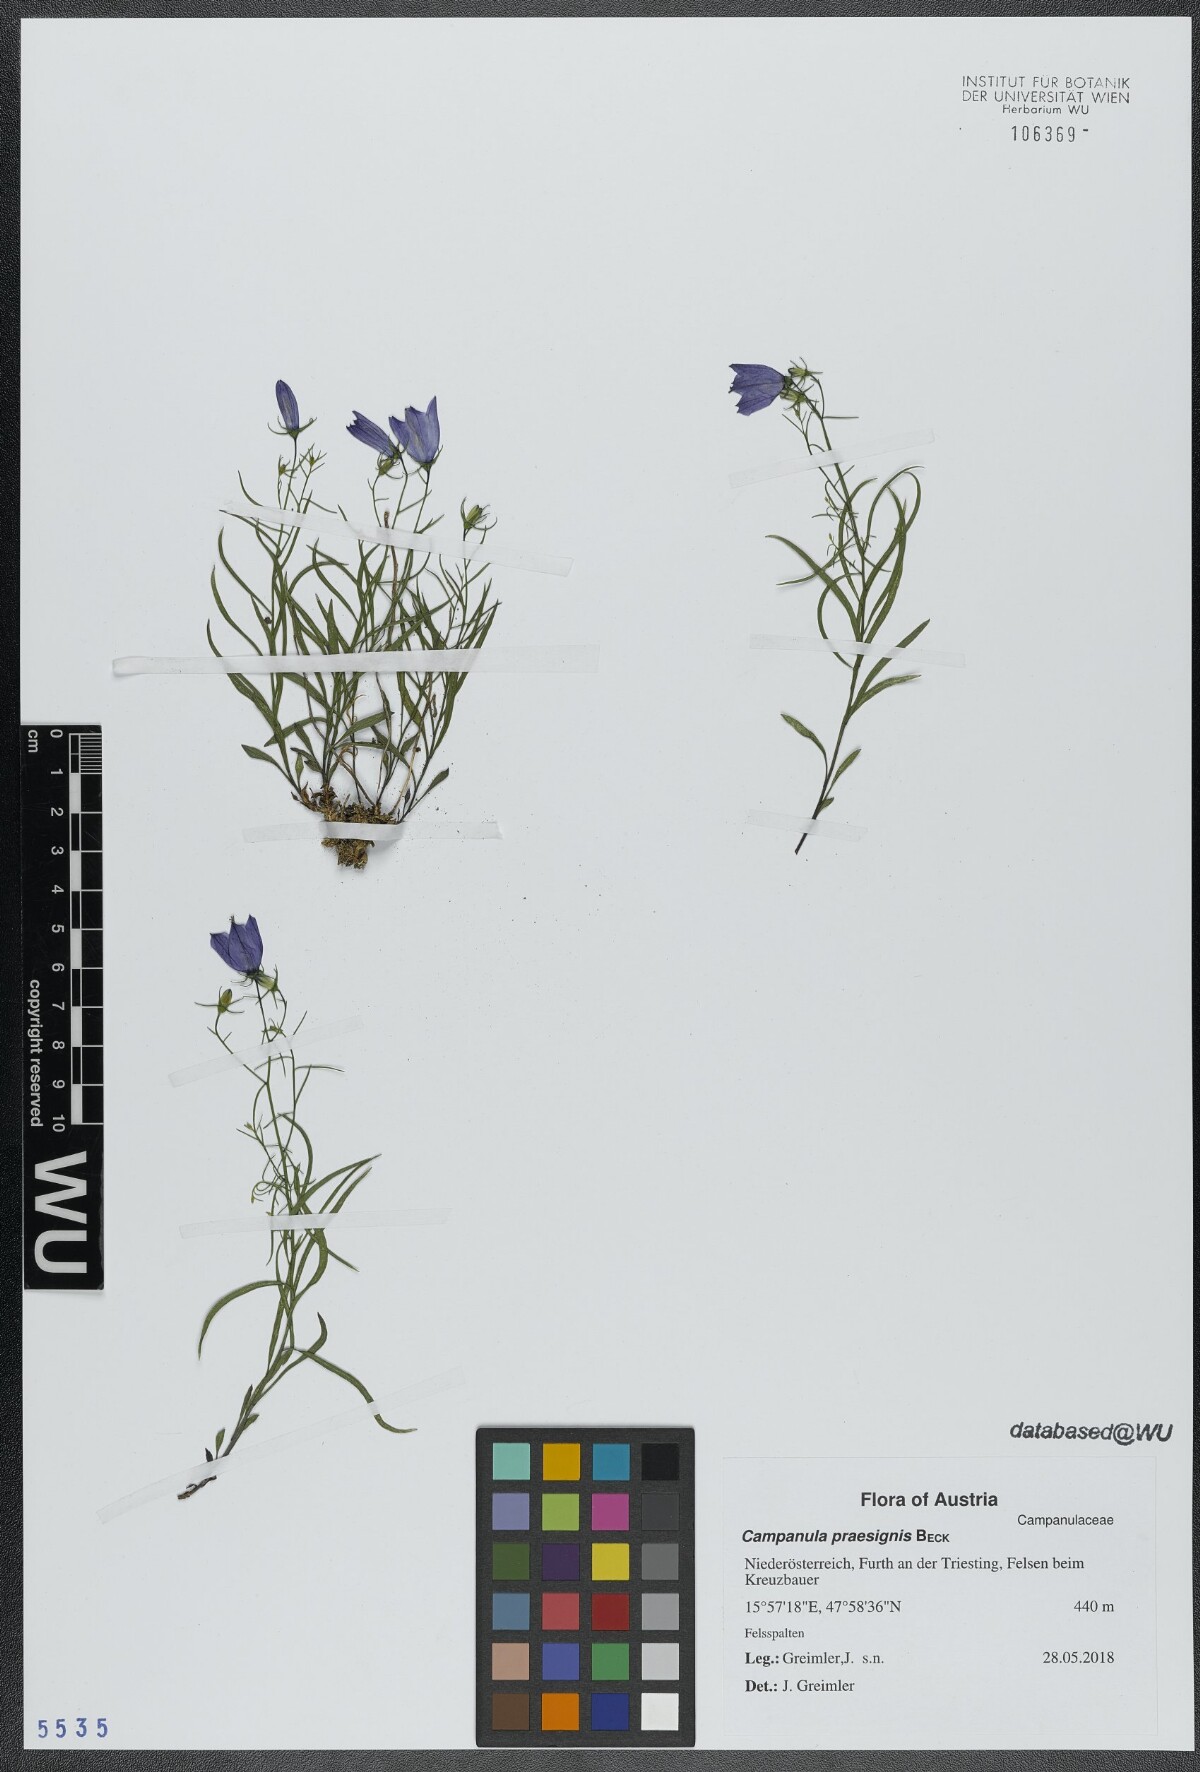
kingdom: Plantae
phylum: Tracheophyta
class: Magnoliopsida
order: Asterales
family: Campanulaceae
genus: Campanula
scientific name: Campanula praesignis
